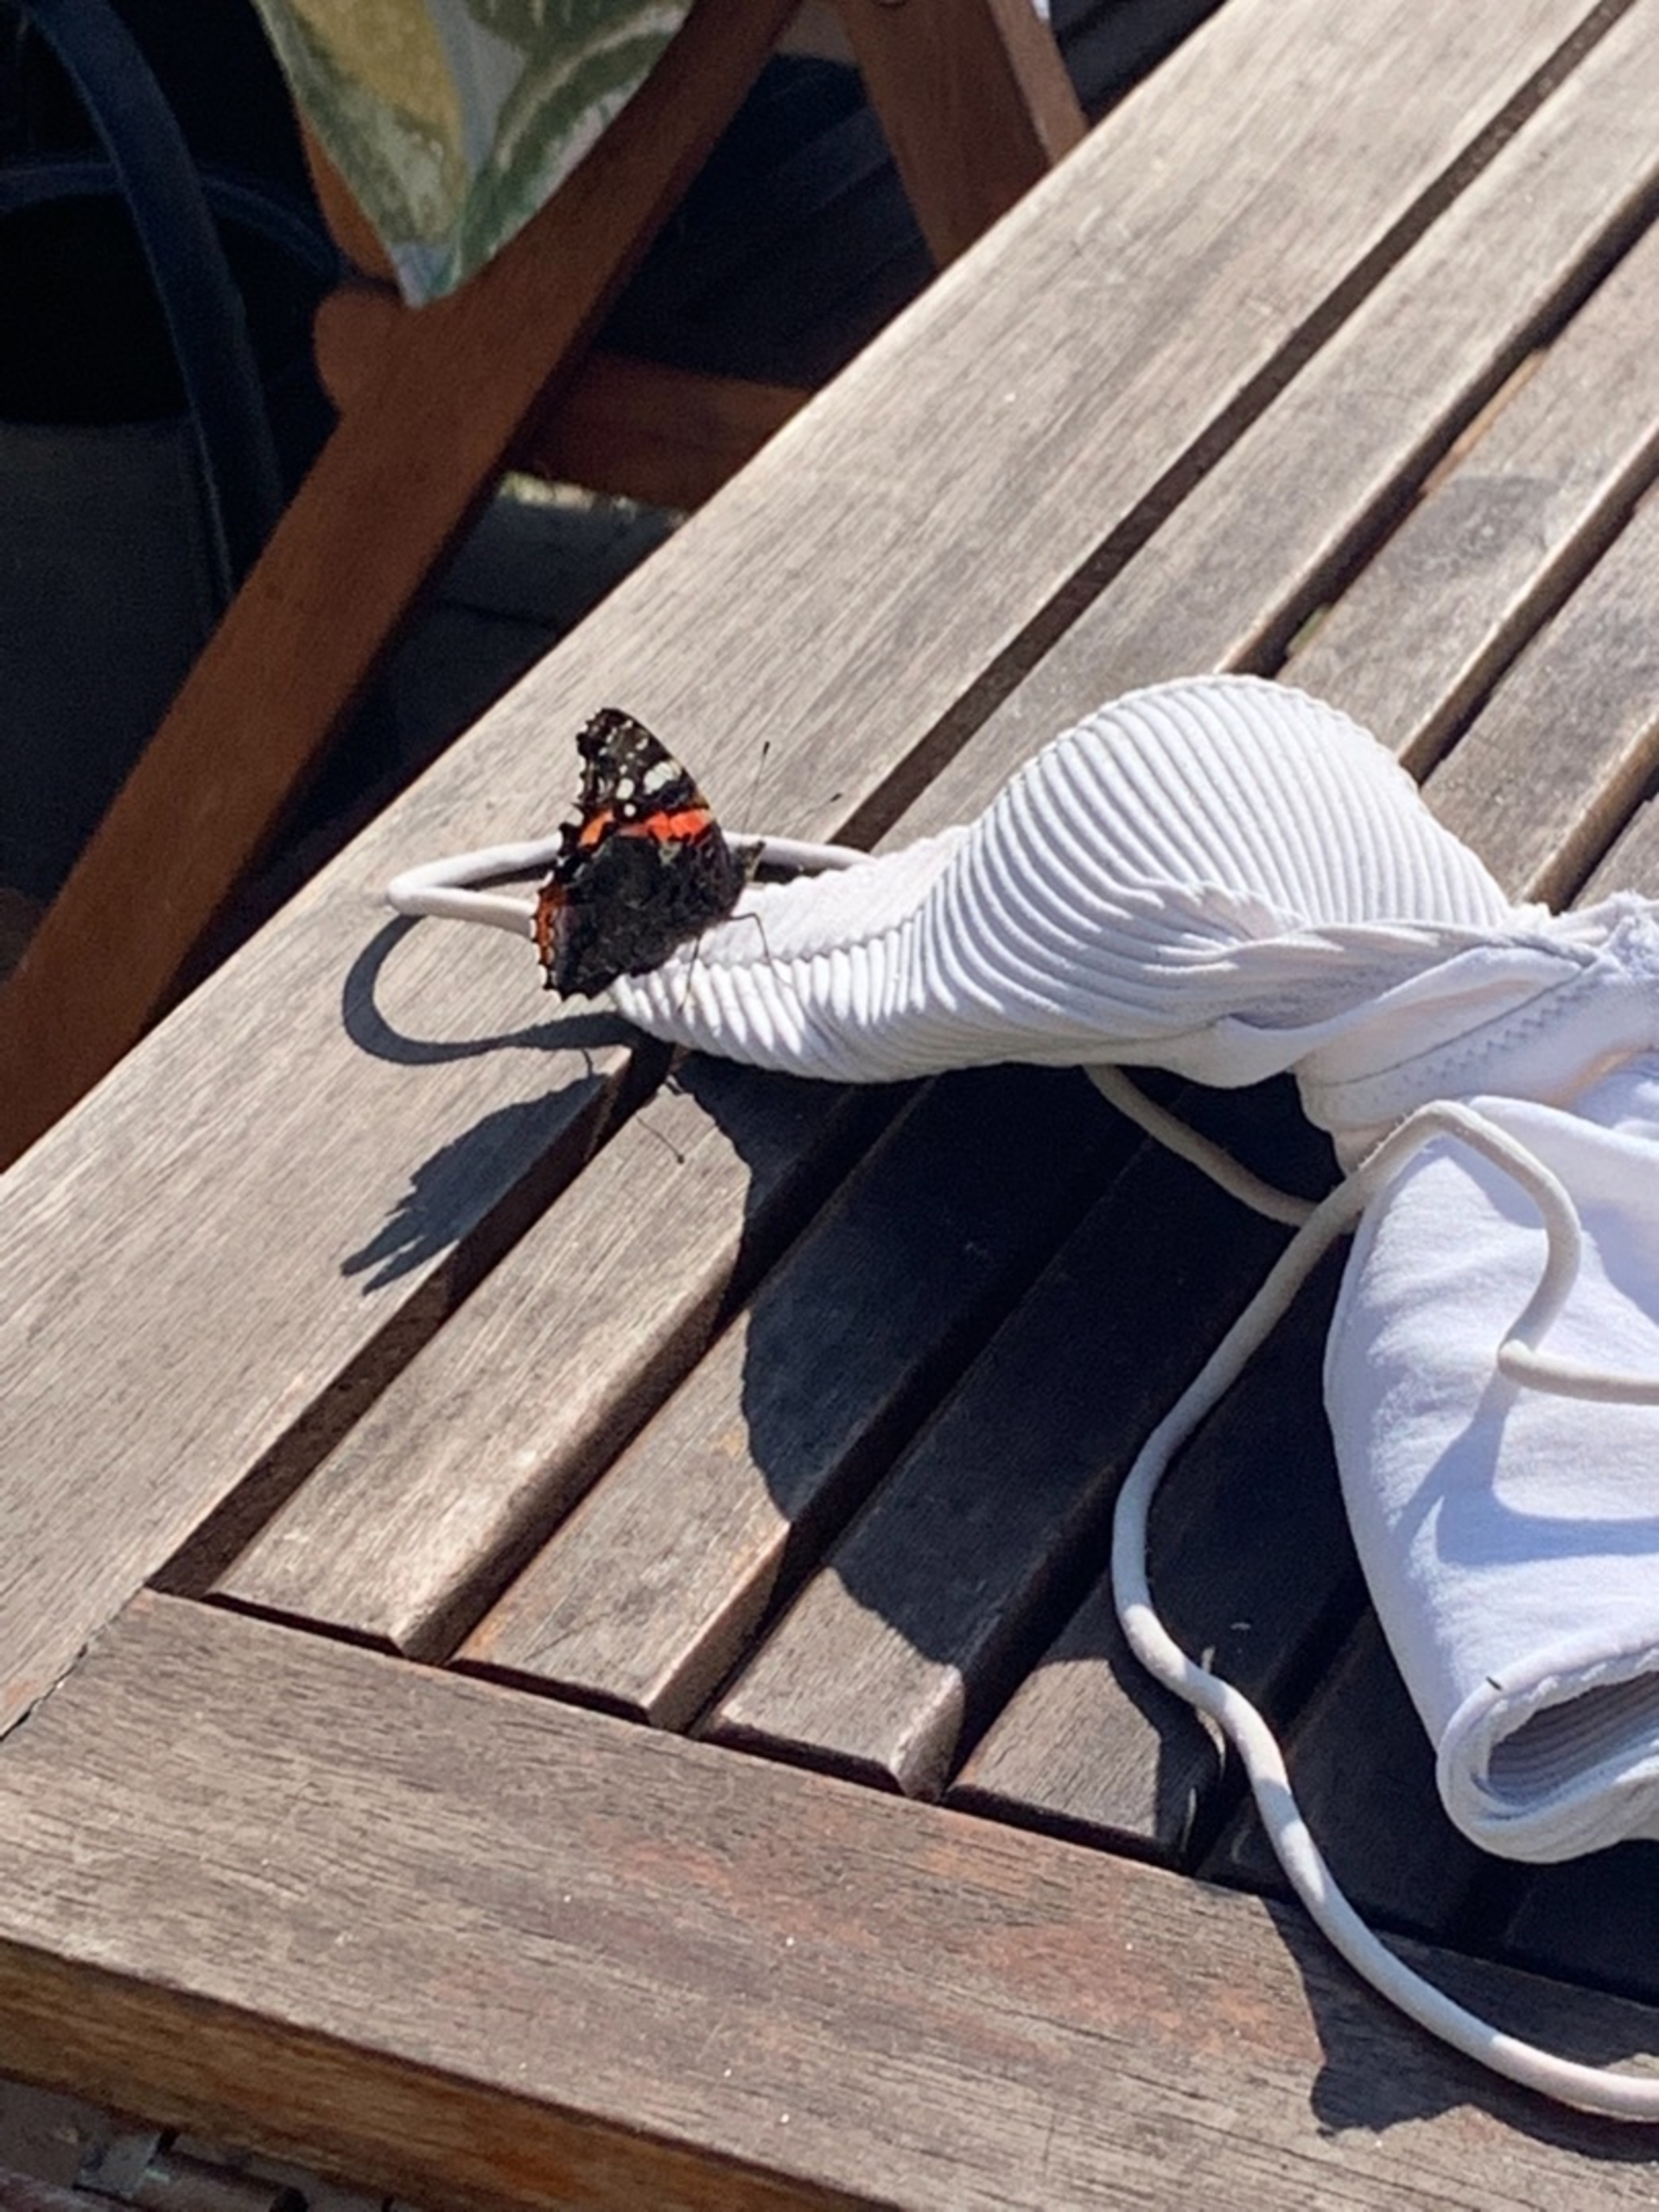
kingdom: Animalia
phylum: Arthropoda
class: Insecta
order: Lepidoptera
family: Nymphalidae
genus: Vanessa
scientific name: Vanessa atalanta
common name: Admiral
